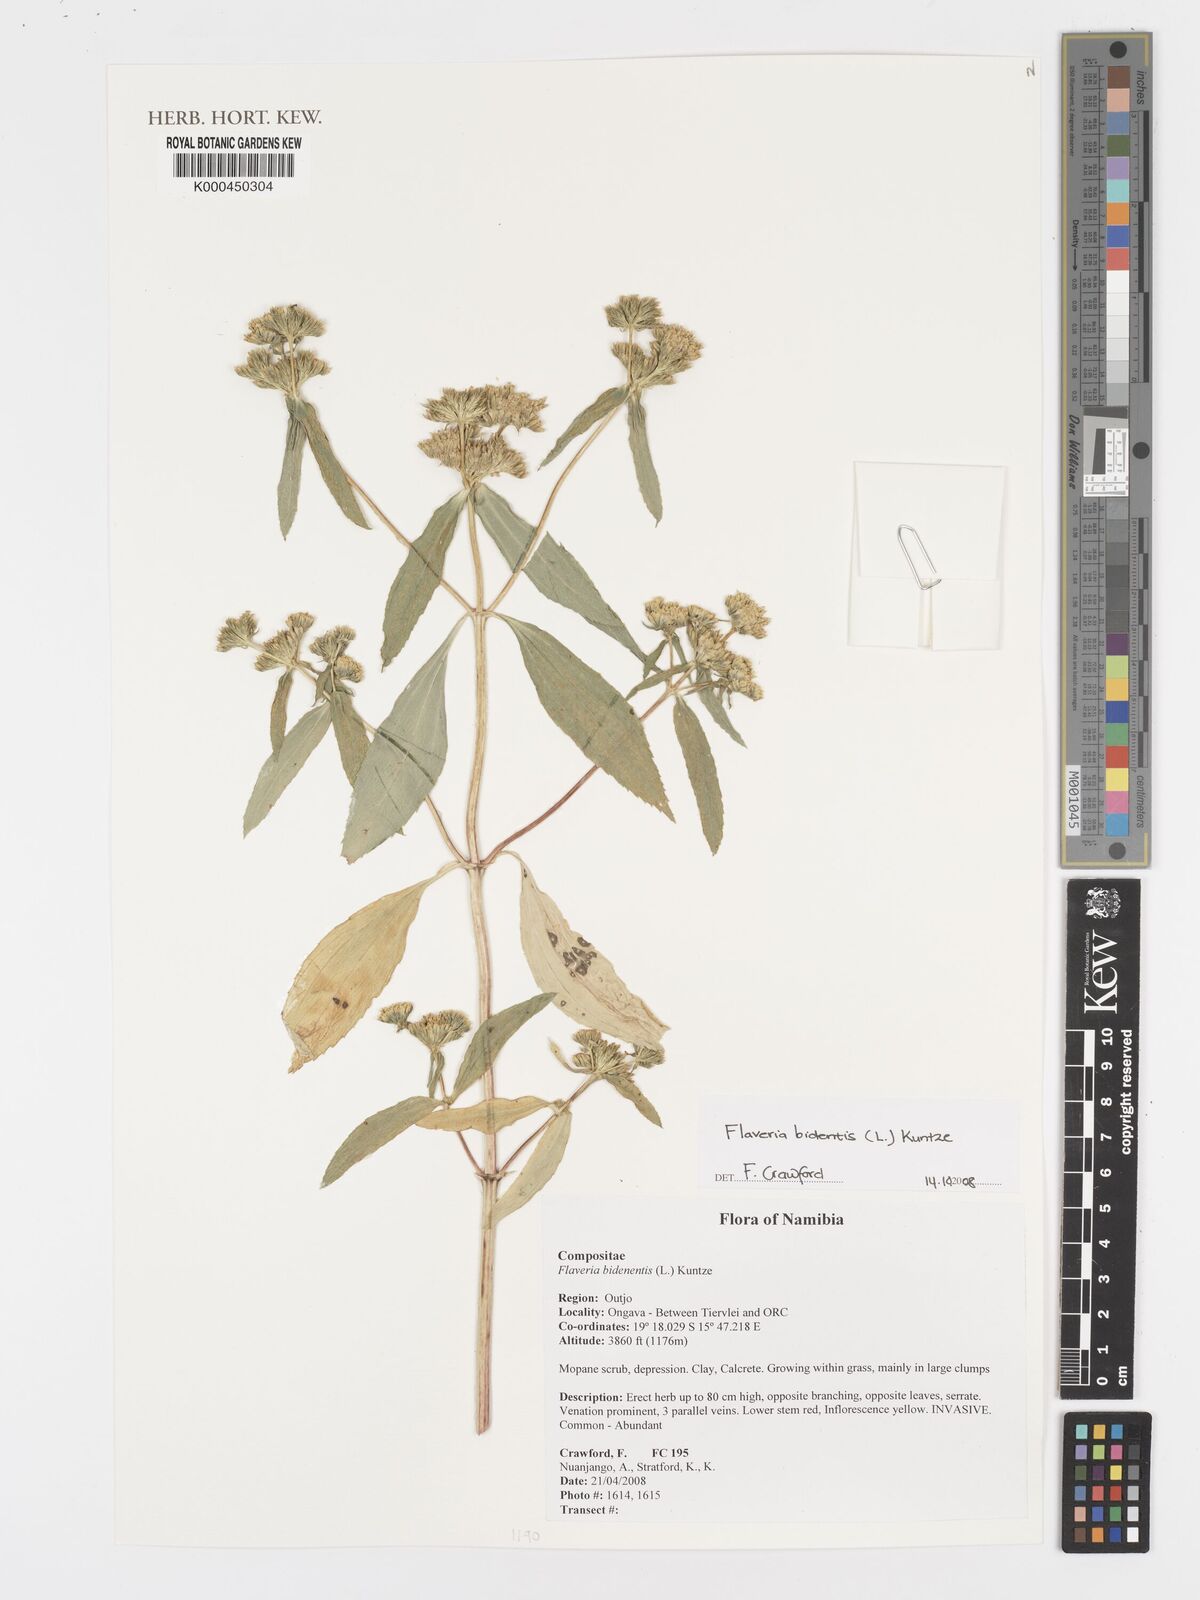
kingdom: Plantae
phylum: Tracheophyta
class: Magnoliopsida
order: Asterales
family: Asteraceae
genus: Flaveria
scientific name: Flaveria
